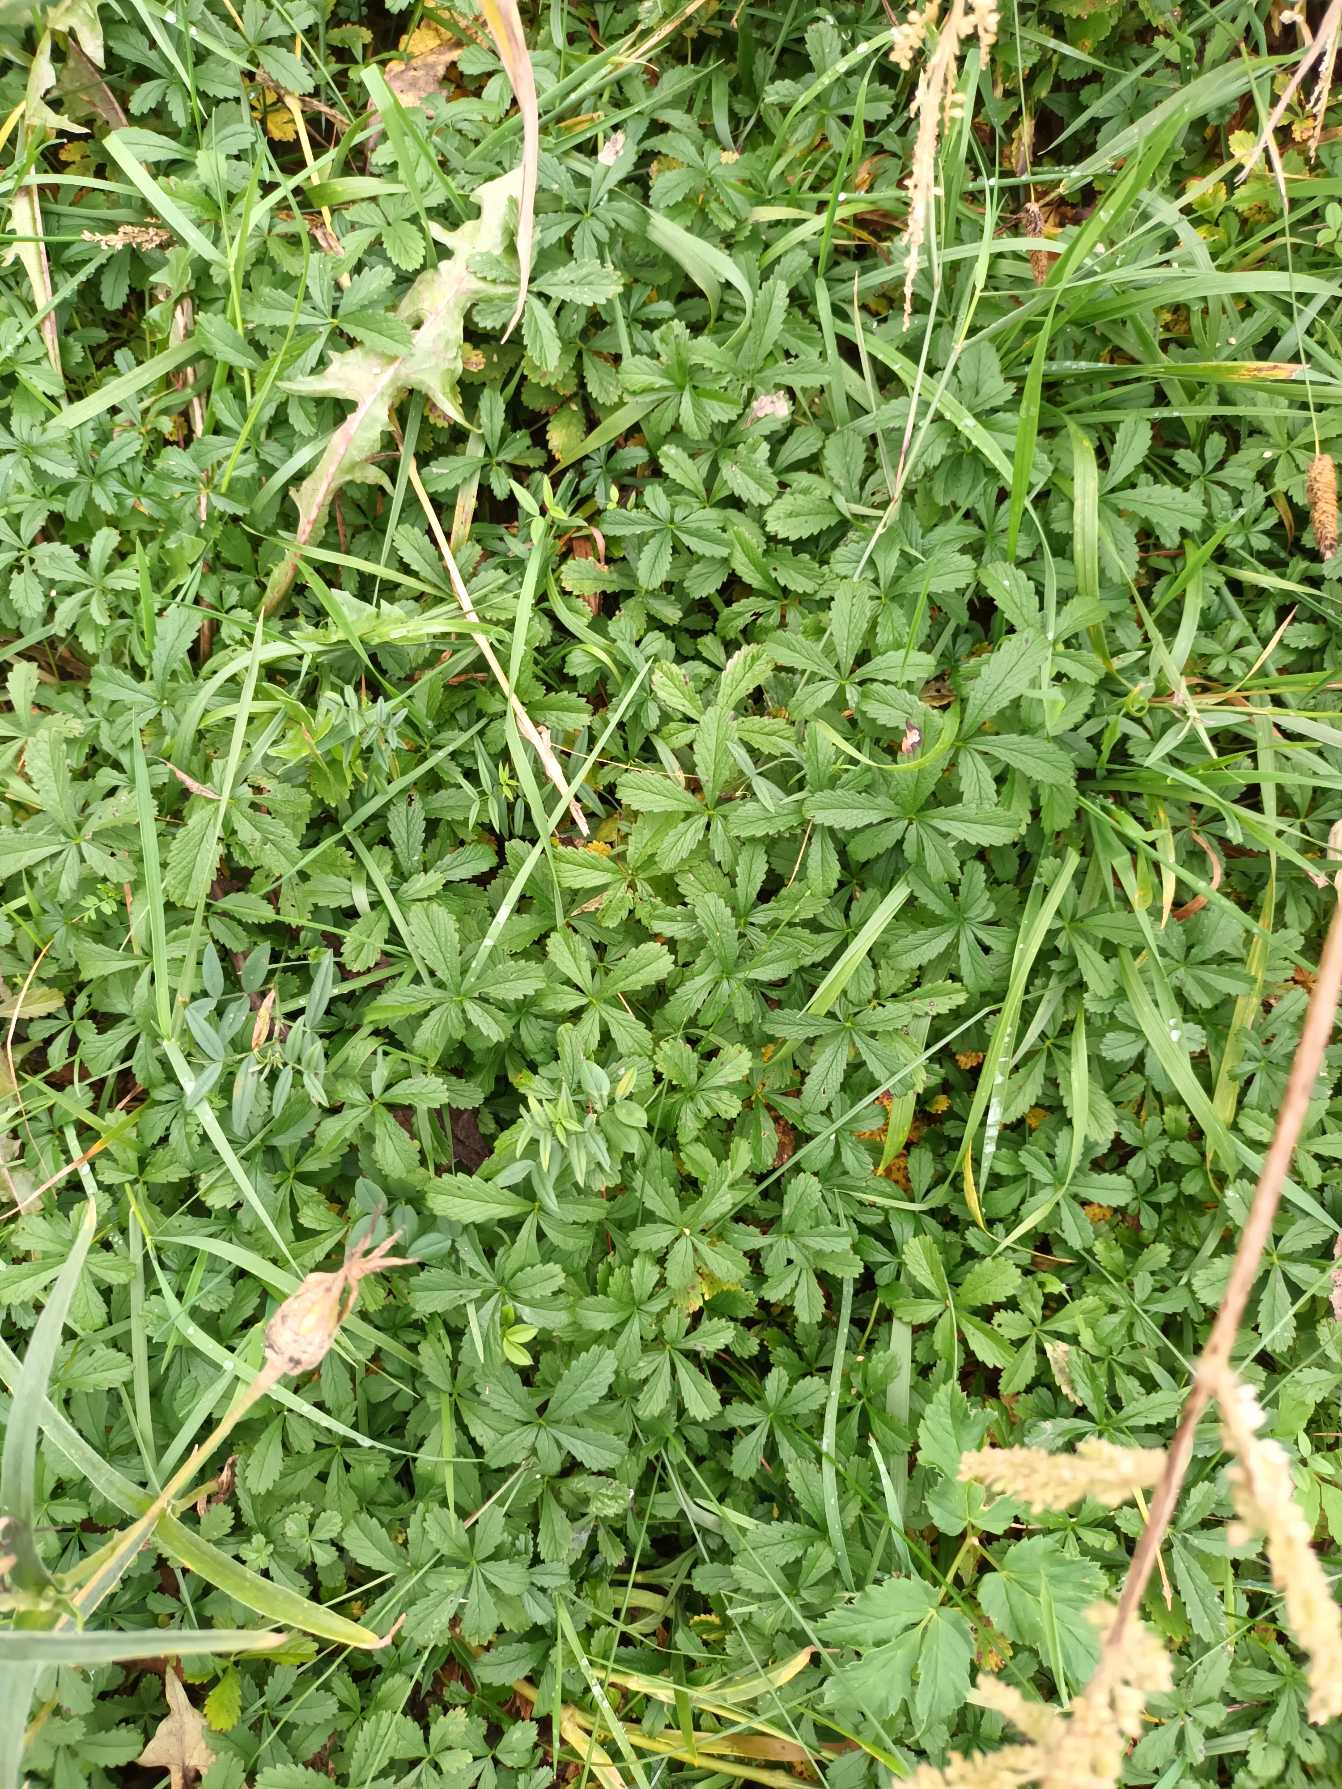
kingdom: Plantae
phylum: Tracheophyta
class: Magnoliopsida
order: Rosales
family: Rosaceae
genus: Potentilla
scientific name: Potentilla reptans
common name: Krybende potentil
